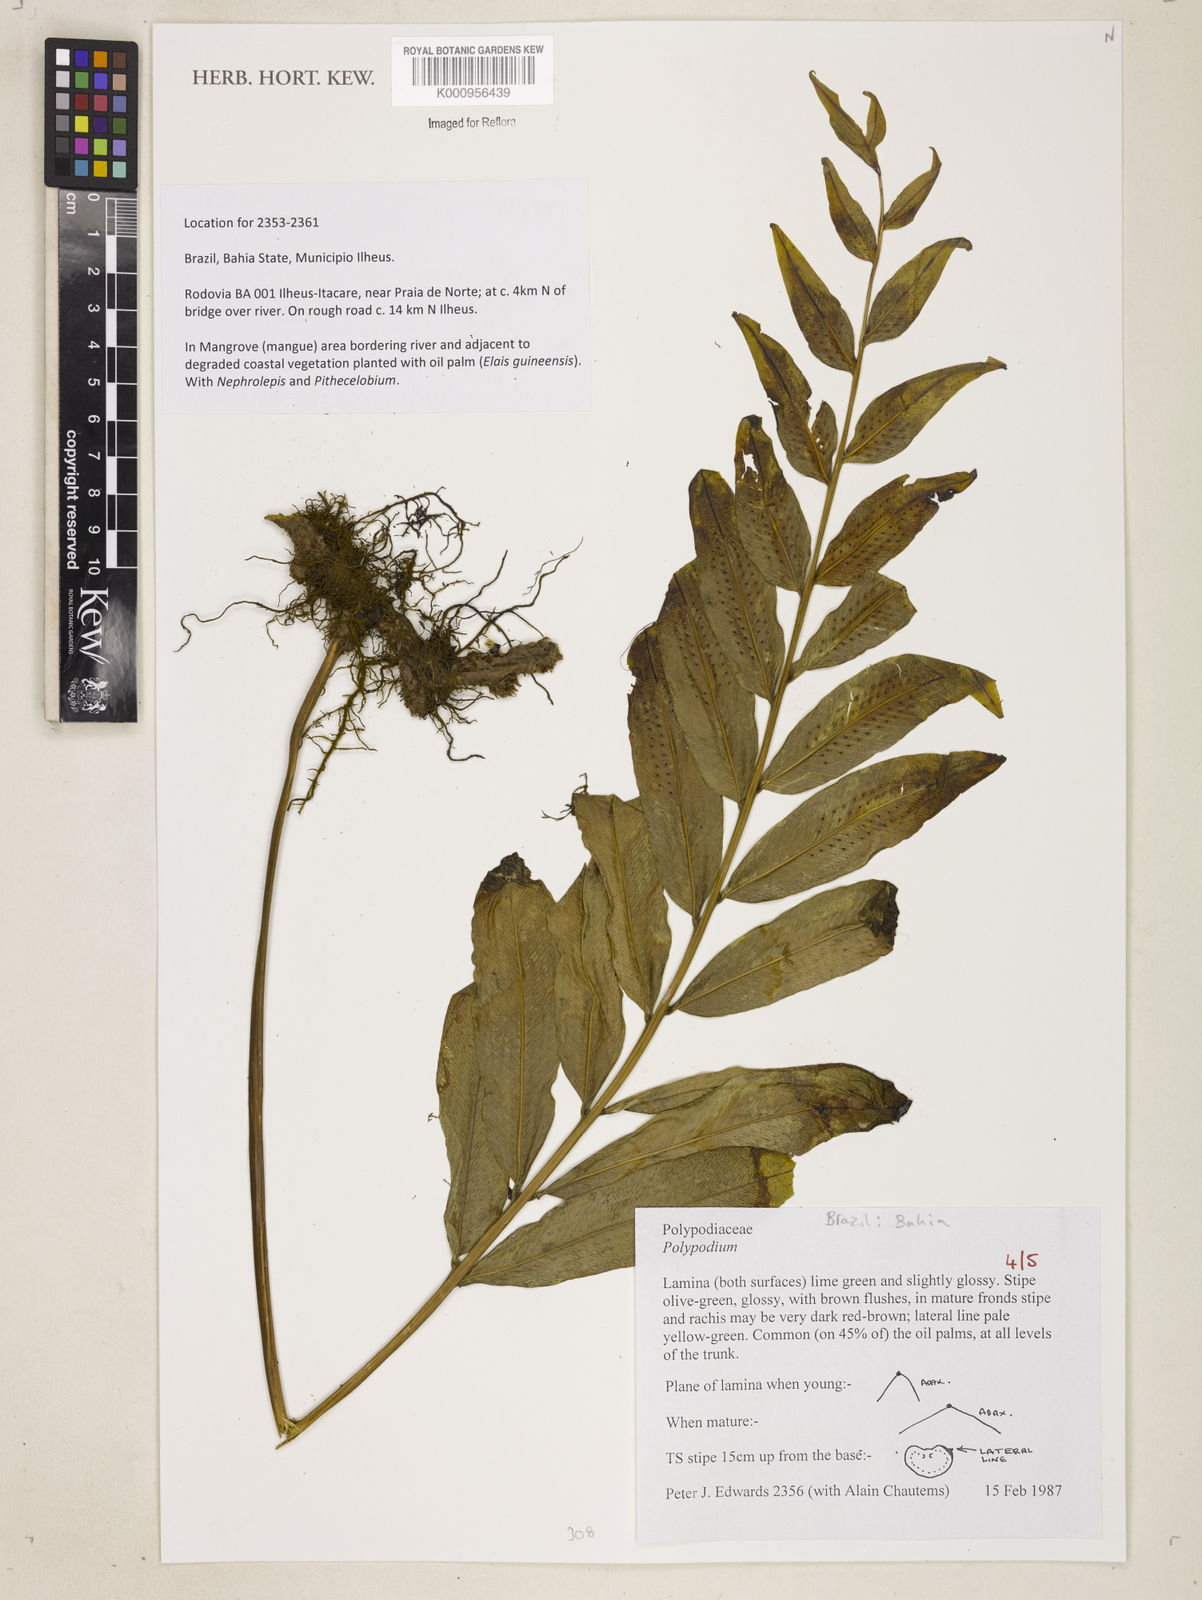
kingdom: Plantae
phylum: Tracheophyta
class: Polypodiopsida
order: Polypodiales
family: Polypodiaceae
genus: Polypodium
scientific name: Polypodium
